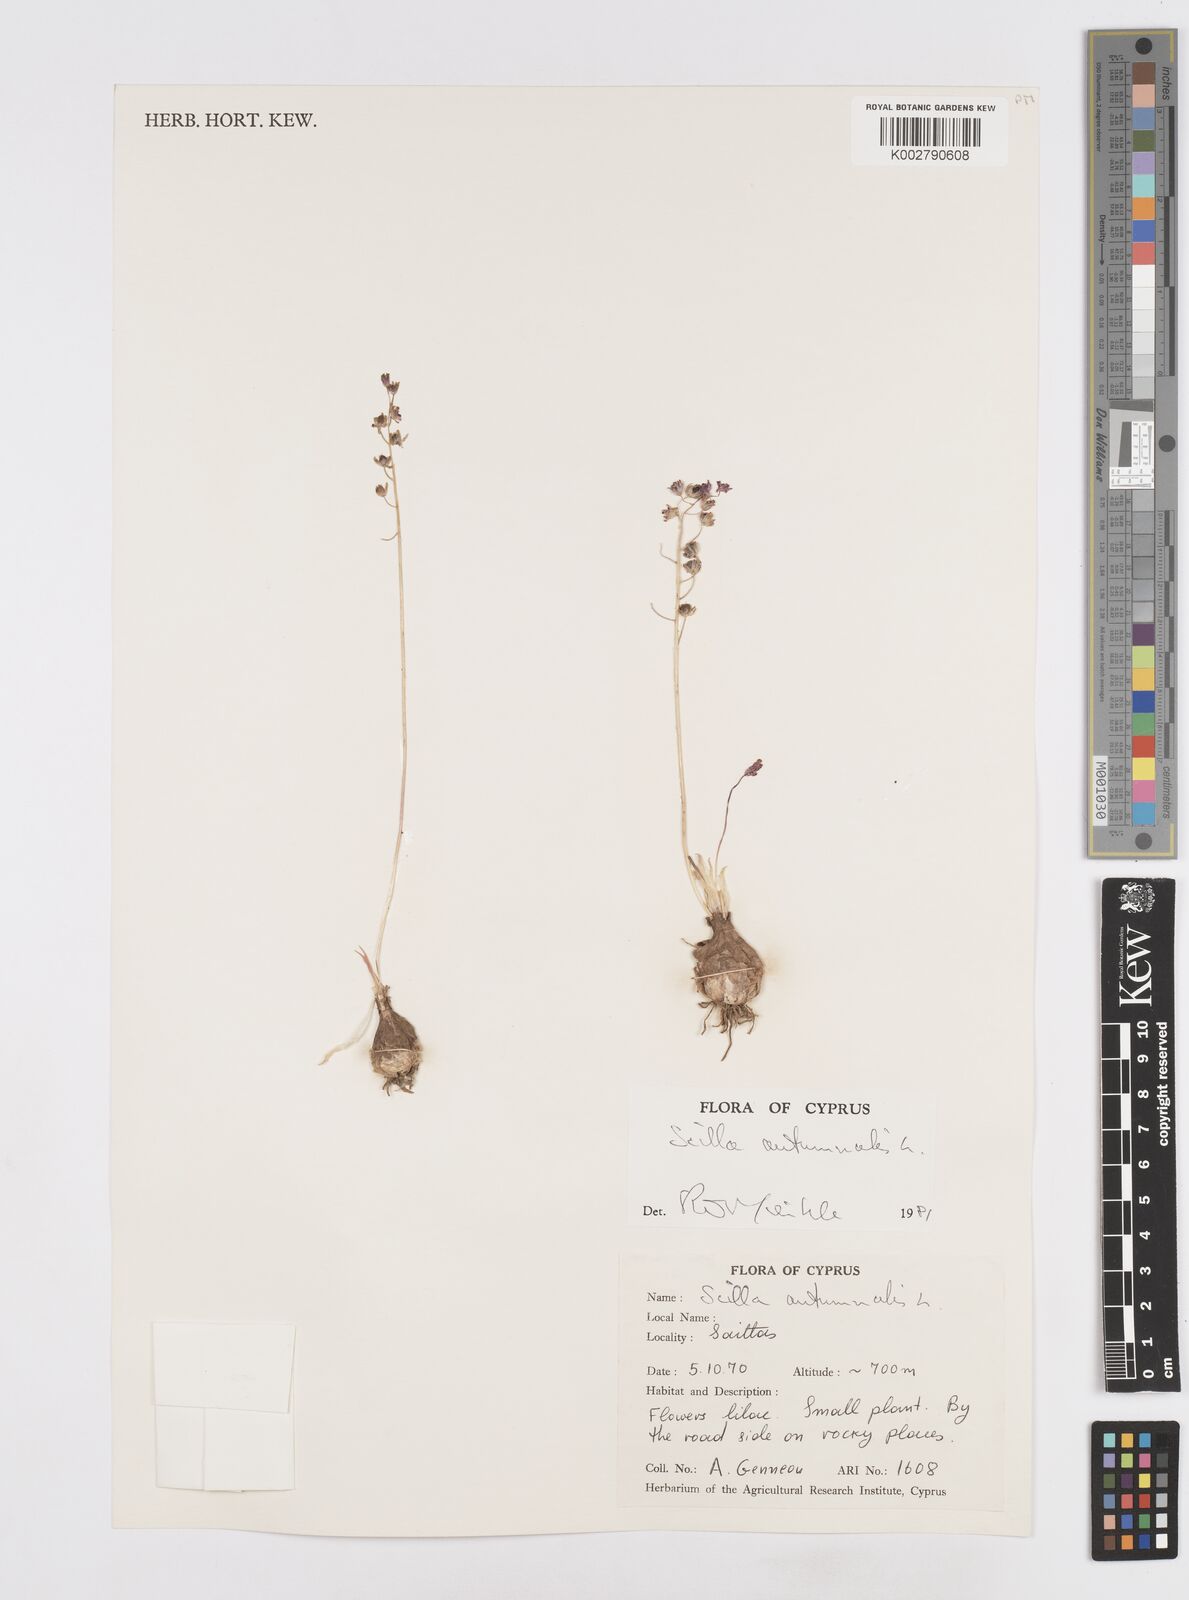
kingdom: Plantae
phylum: Tracheophyta
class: Liliopsida
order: Asparagales
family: Asparagaceae
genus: Prospero
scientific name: Prospero autumnale
